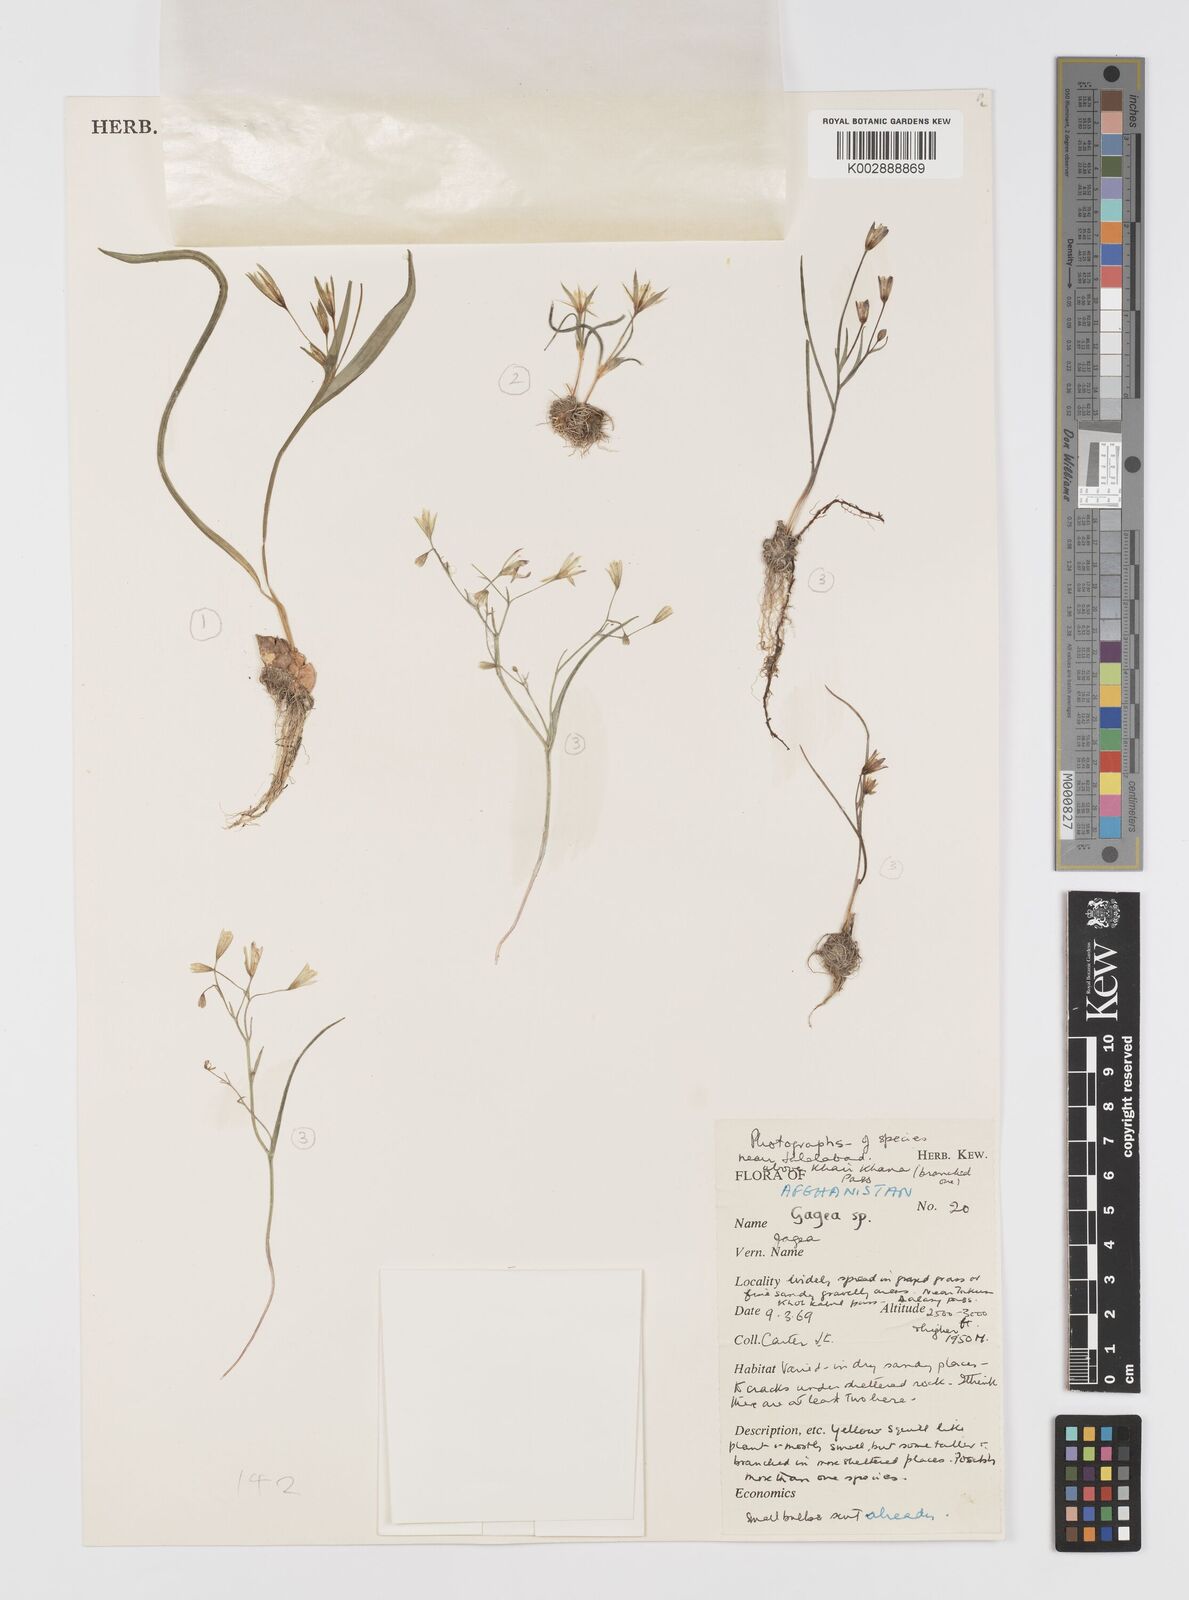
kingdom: Plantae
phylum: Tracheophyta
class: Liliopsida
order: Liliales
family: Liliaceae
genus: Gagea
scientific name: Gagea
